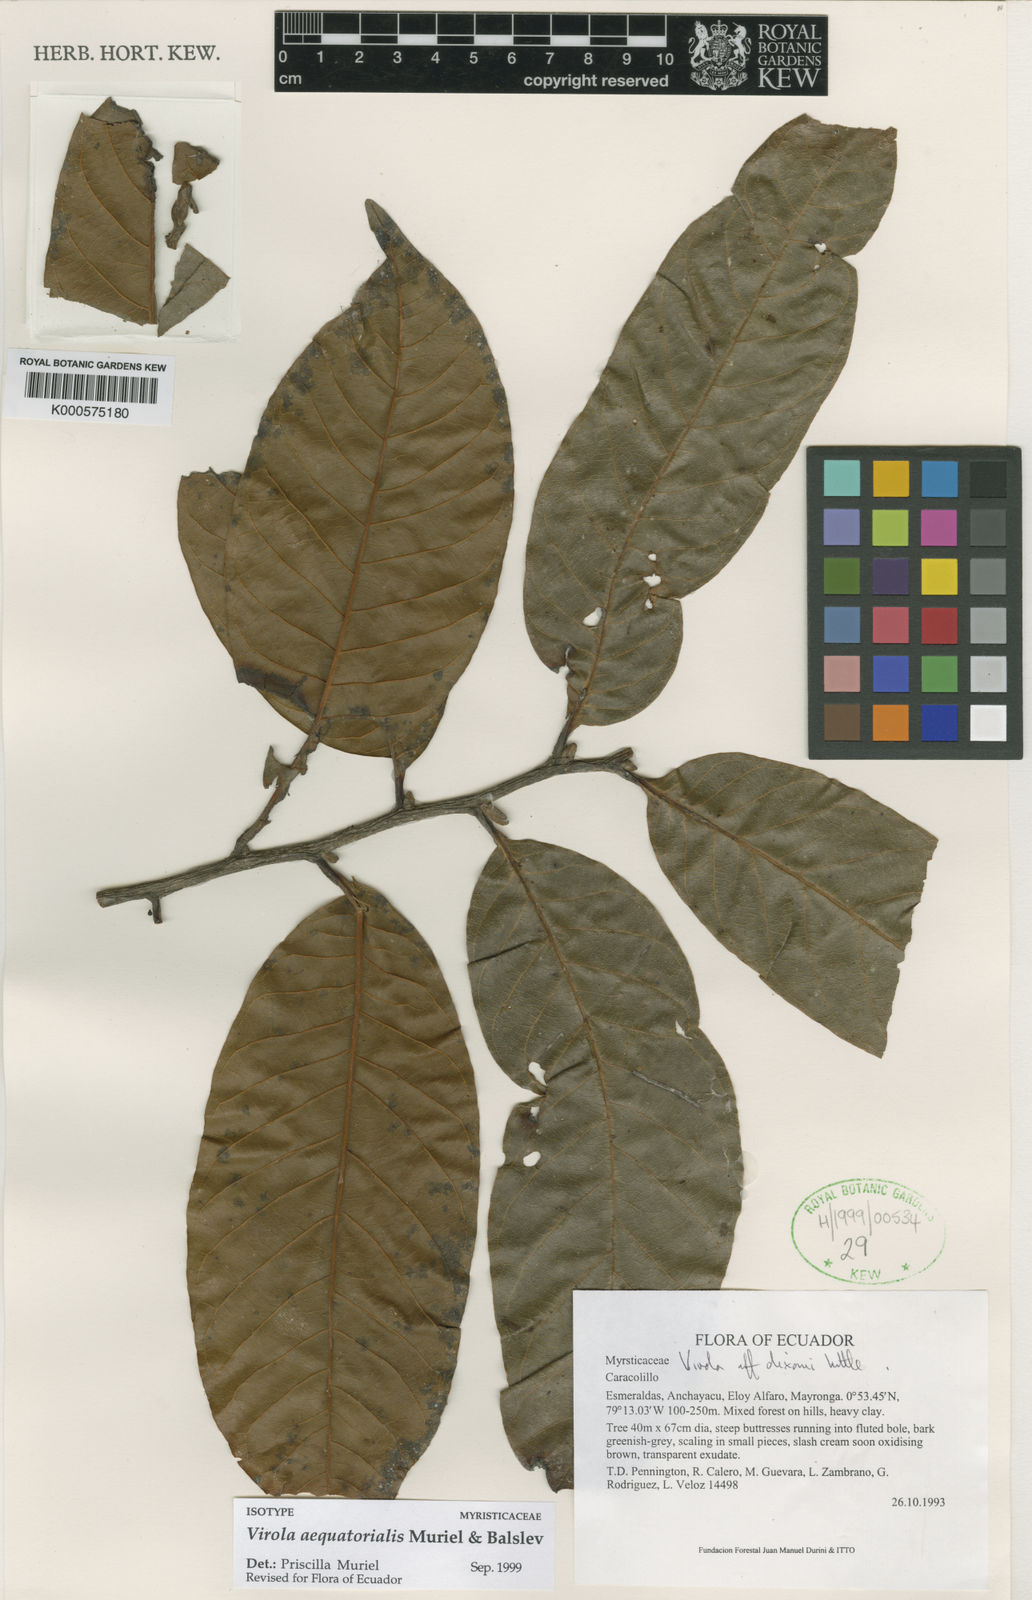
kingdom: Plantae
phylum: Tracheophyta
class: Magnoliopsida
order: Magnoliales
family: Myristicaceae
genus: Virola
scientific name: Virola aequatorialis
